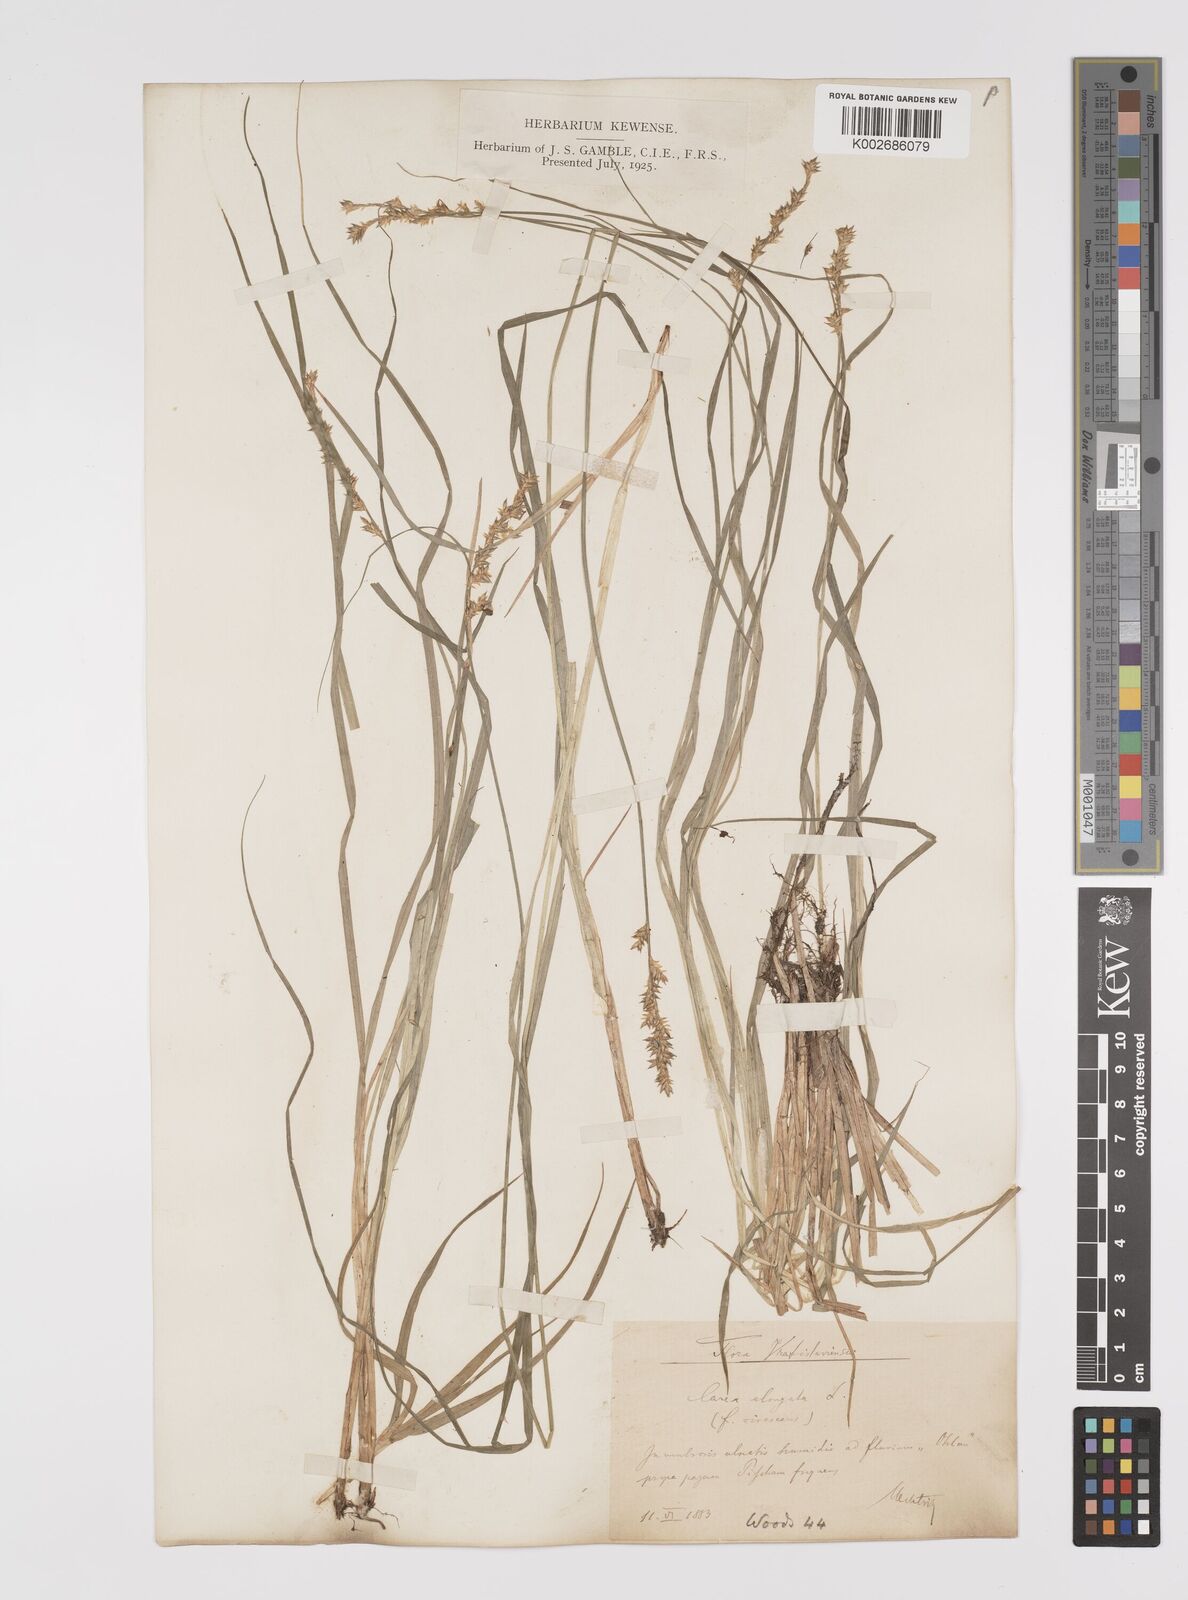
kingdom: Plantae
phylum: Tracheophyta
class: Liliopsida
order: Poales
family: Cyperaceae
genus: Carex
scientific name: Carex elongata
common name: Elongated sedge
